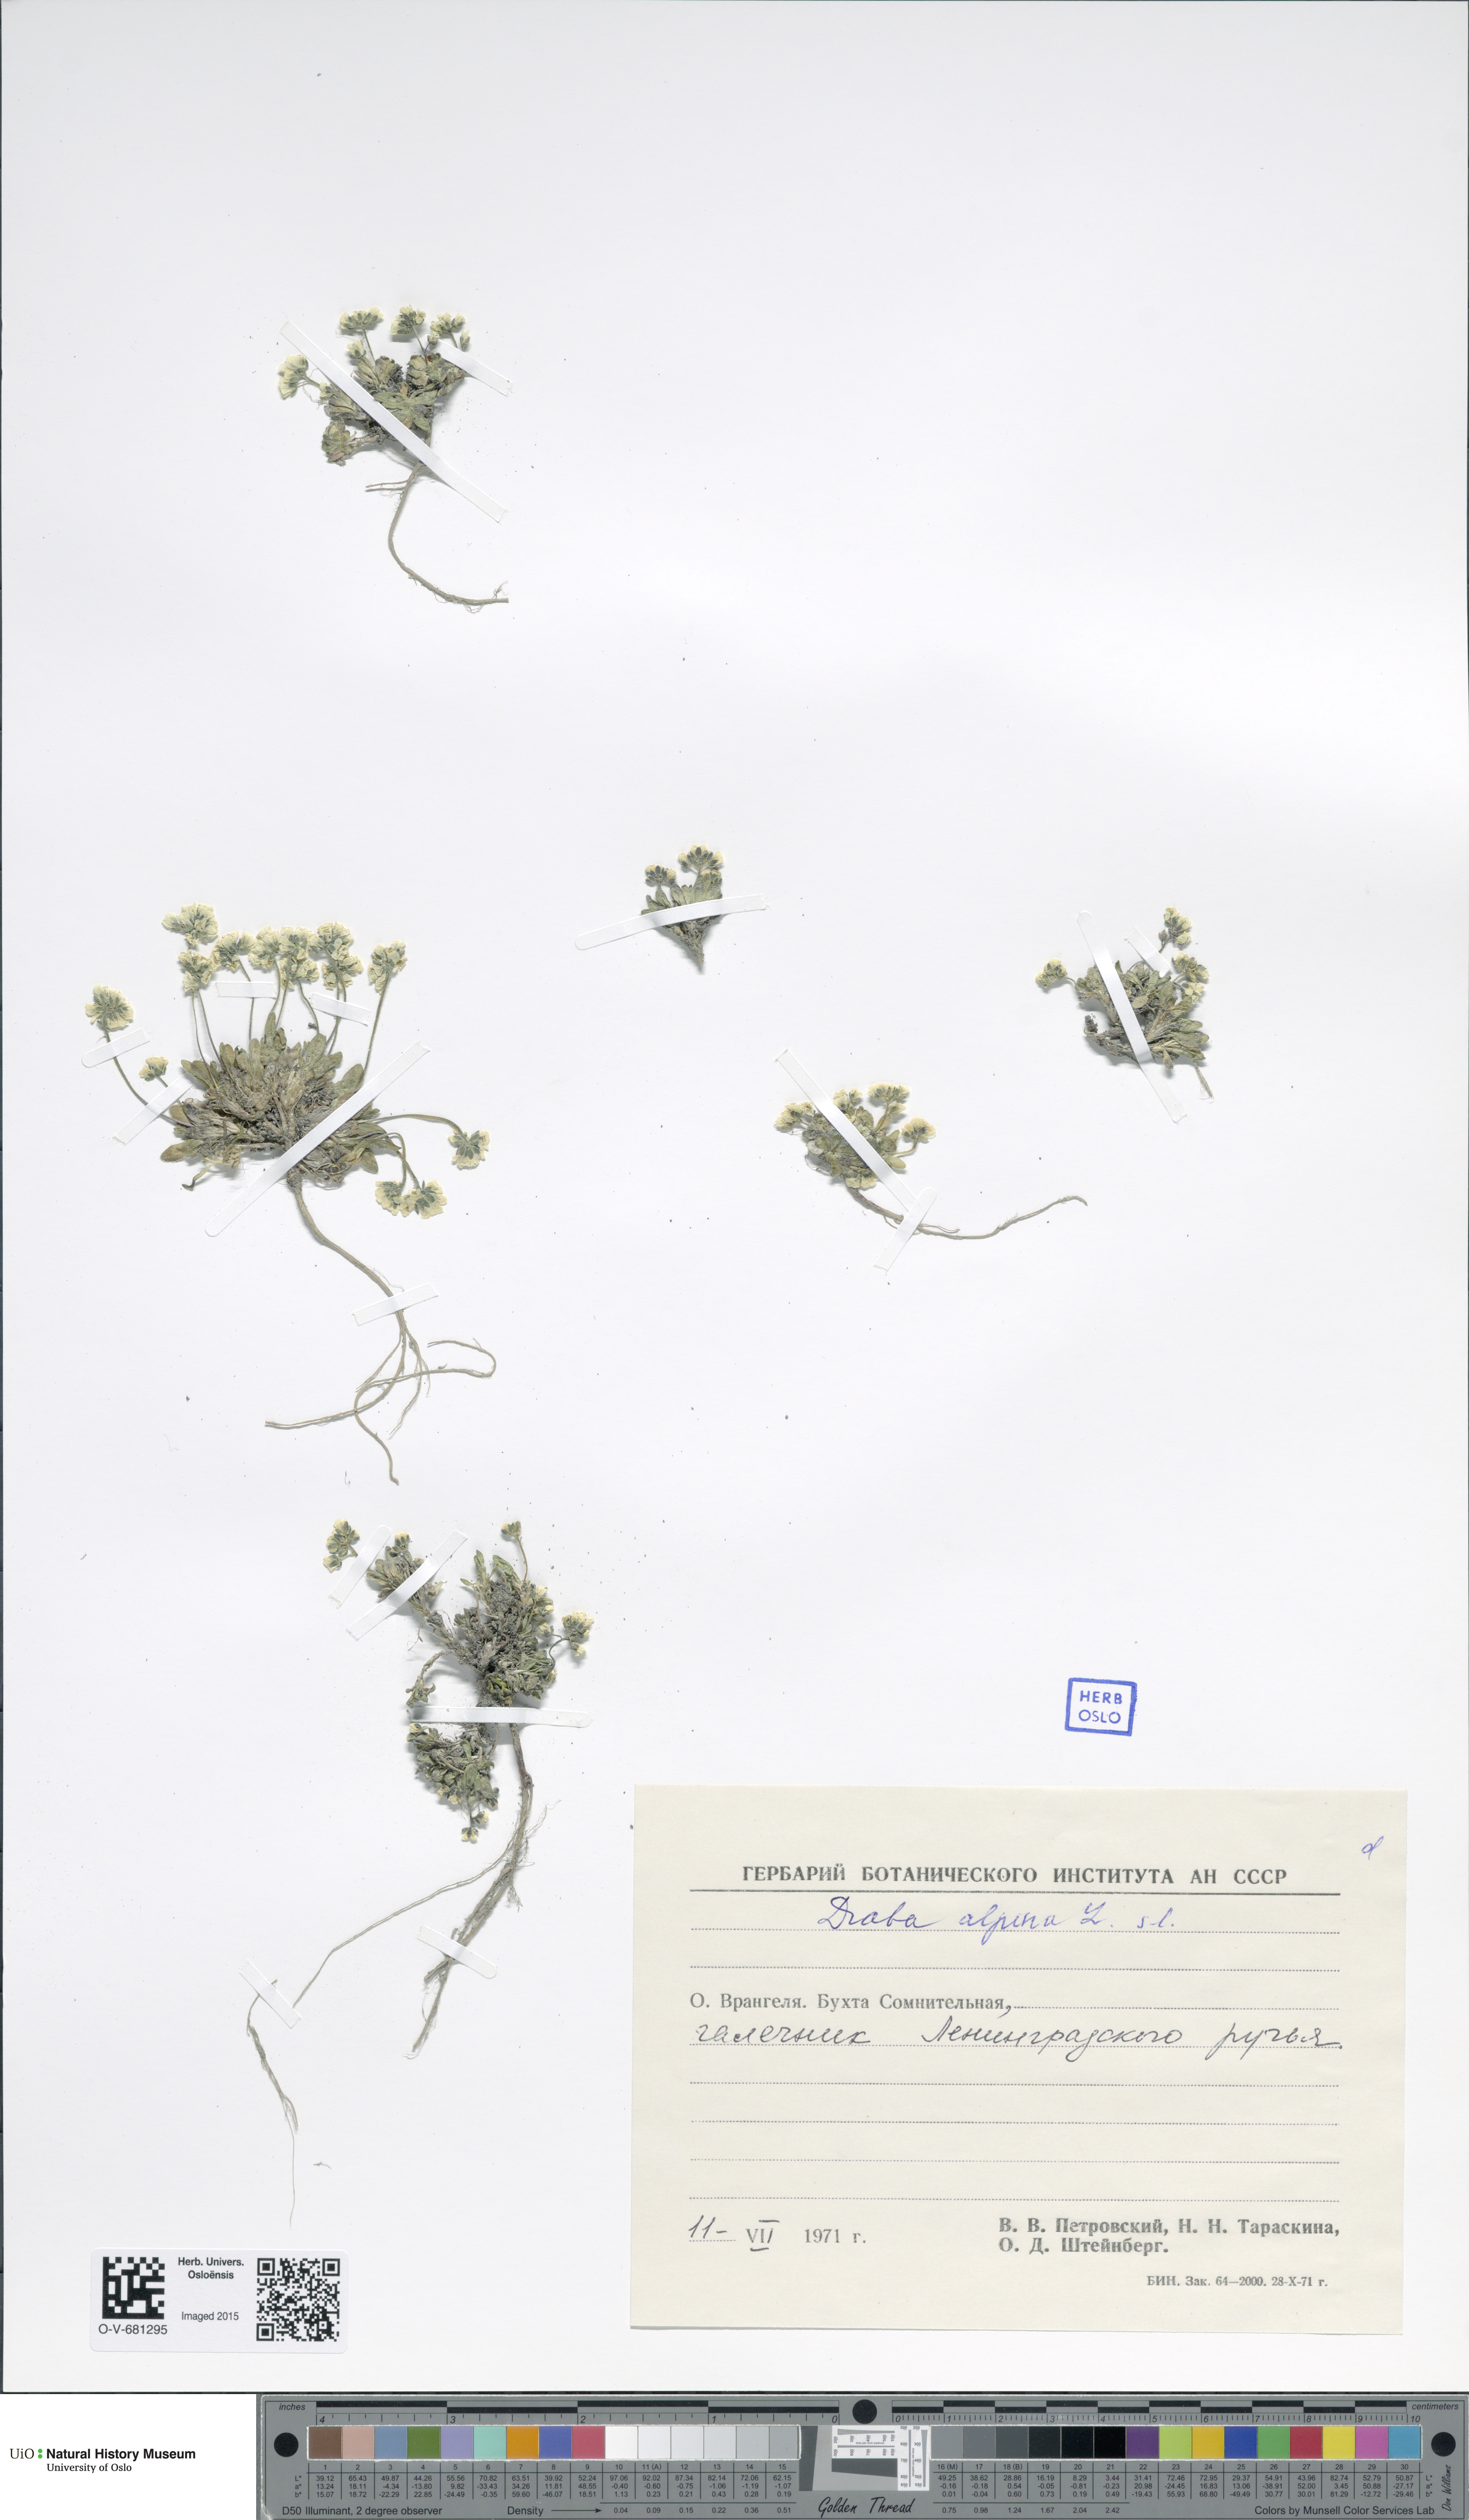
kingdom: Plantae
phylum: Tracheophyta
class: Magnoliopsida
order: Brassicales
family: Brassicaceae
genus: Draba
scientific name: Draba alpina
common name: Alpine draba
